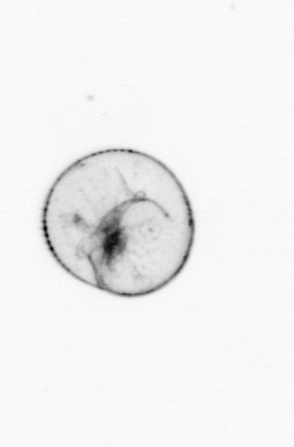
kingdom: Chromista
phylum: Myzozoa
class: Dinophyceae
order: Noctilucales
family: Noctilucaceae
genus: Noctiluca
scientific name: Noctiluca scintillans
